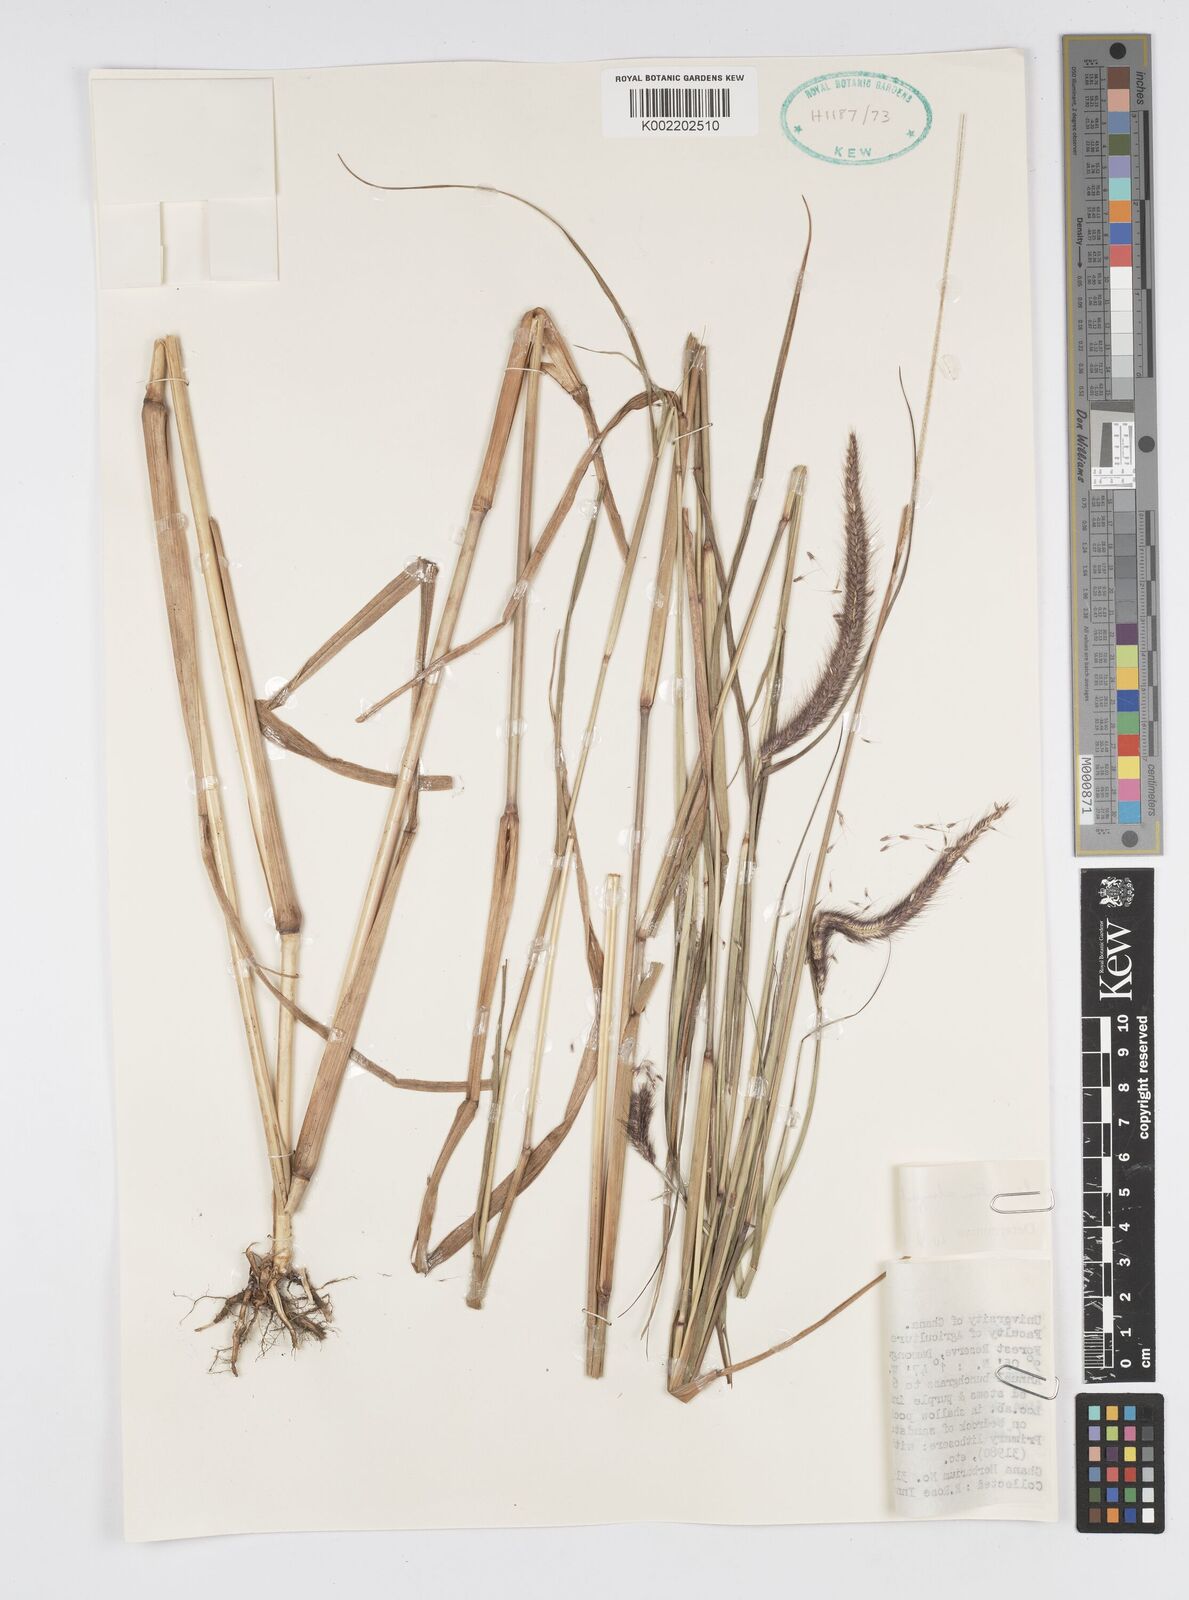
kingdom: Plantae
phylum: Tracheophyta
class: Liliopsida
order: Poales
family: Poaceae
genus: Setaria
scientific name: Setaria parviflora
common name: Knotroot bristle-grass
